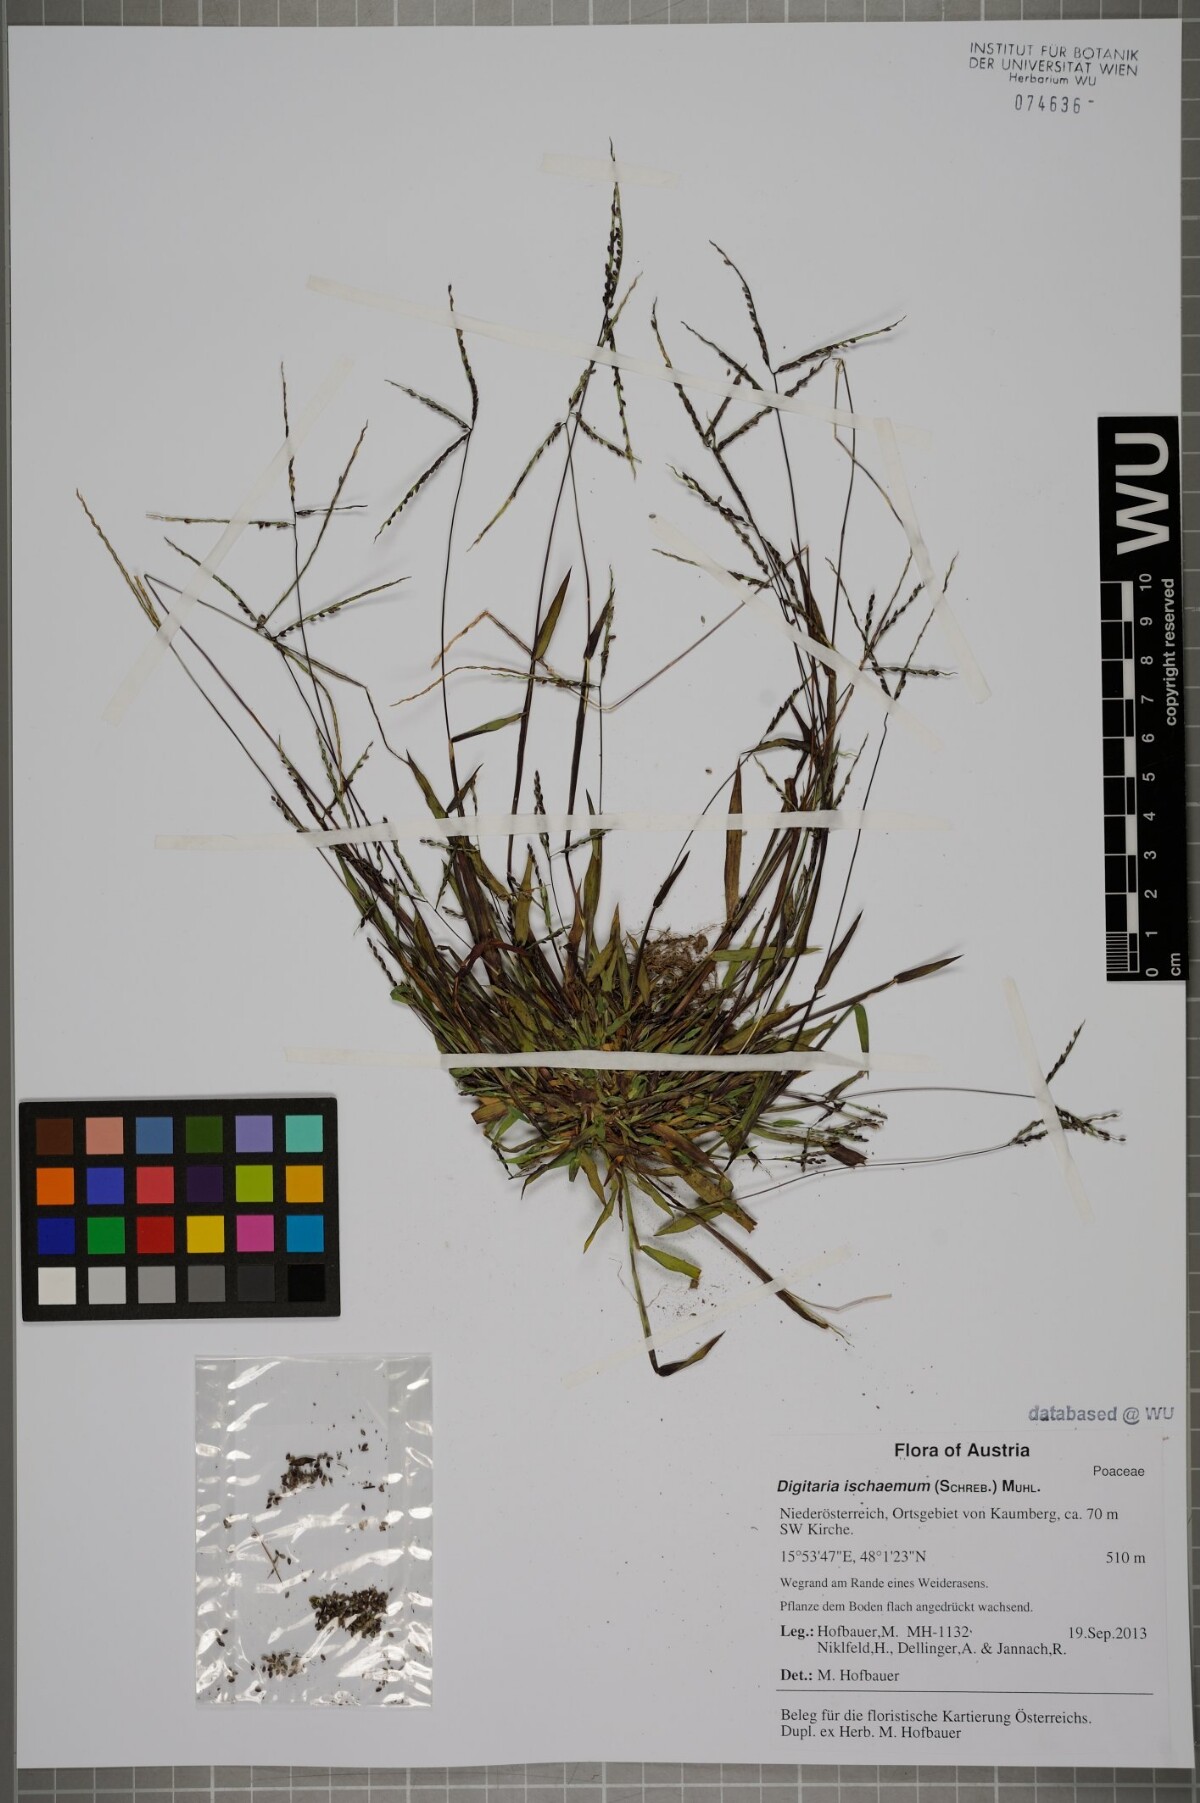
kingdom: Plantae
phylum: Tracheophyta
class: Liliopsida
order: Poales
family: Poaceae
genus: Digitaria
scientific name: Digitaria ischaemum
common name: Smooth crabgrass
